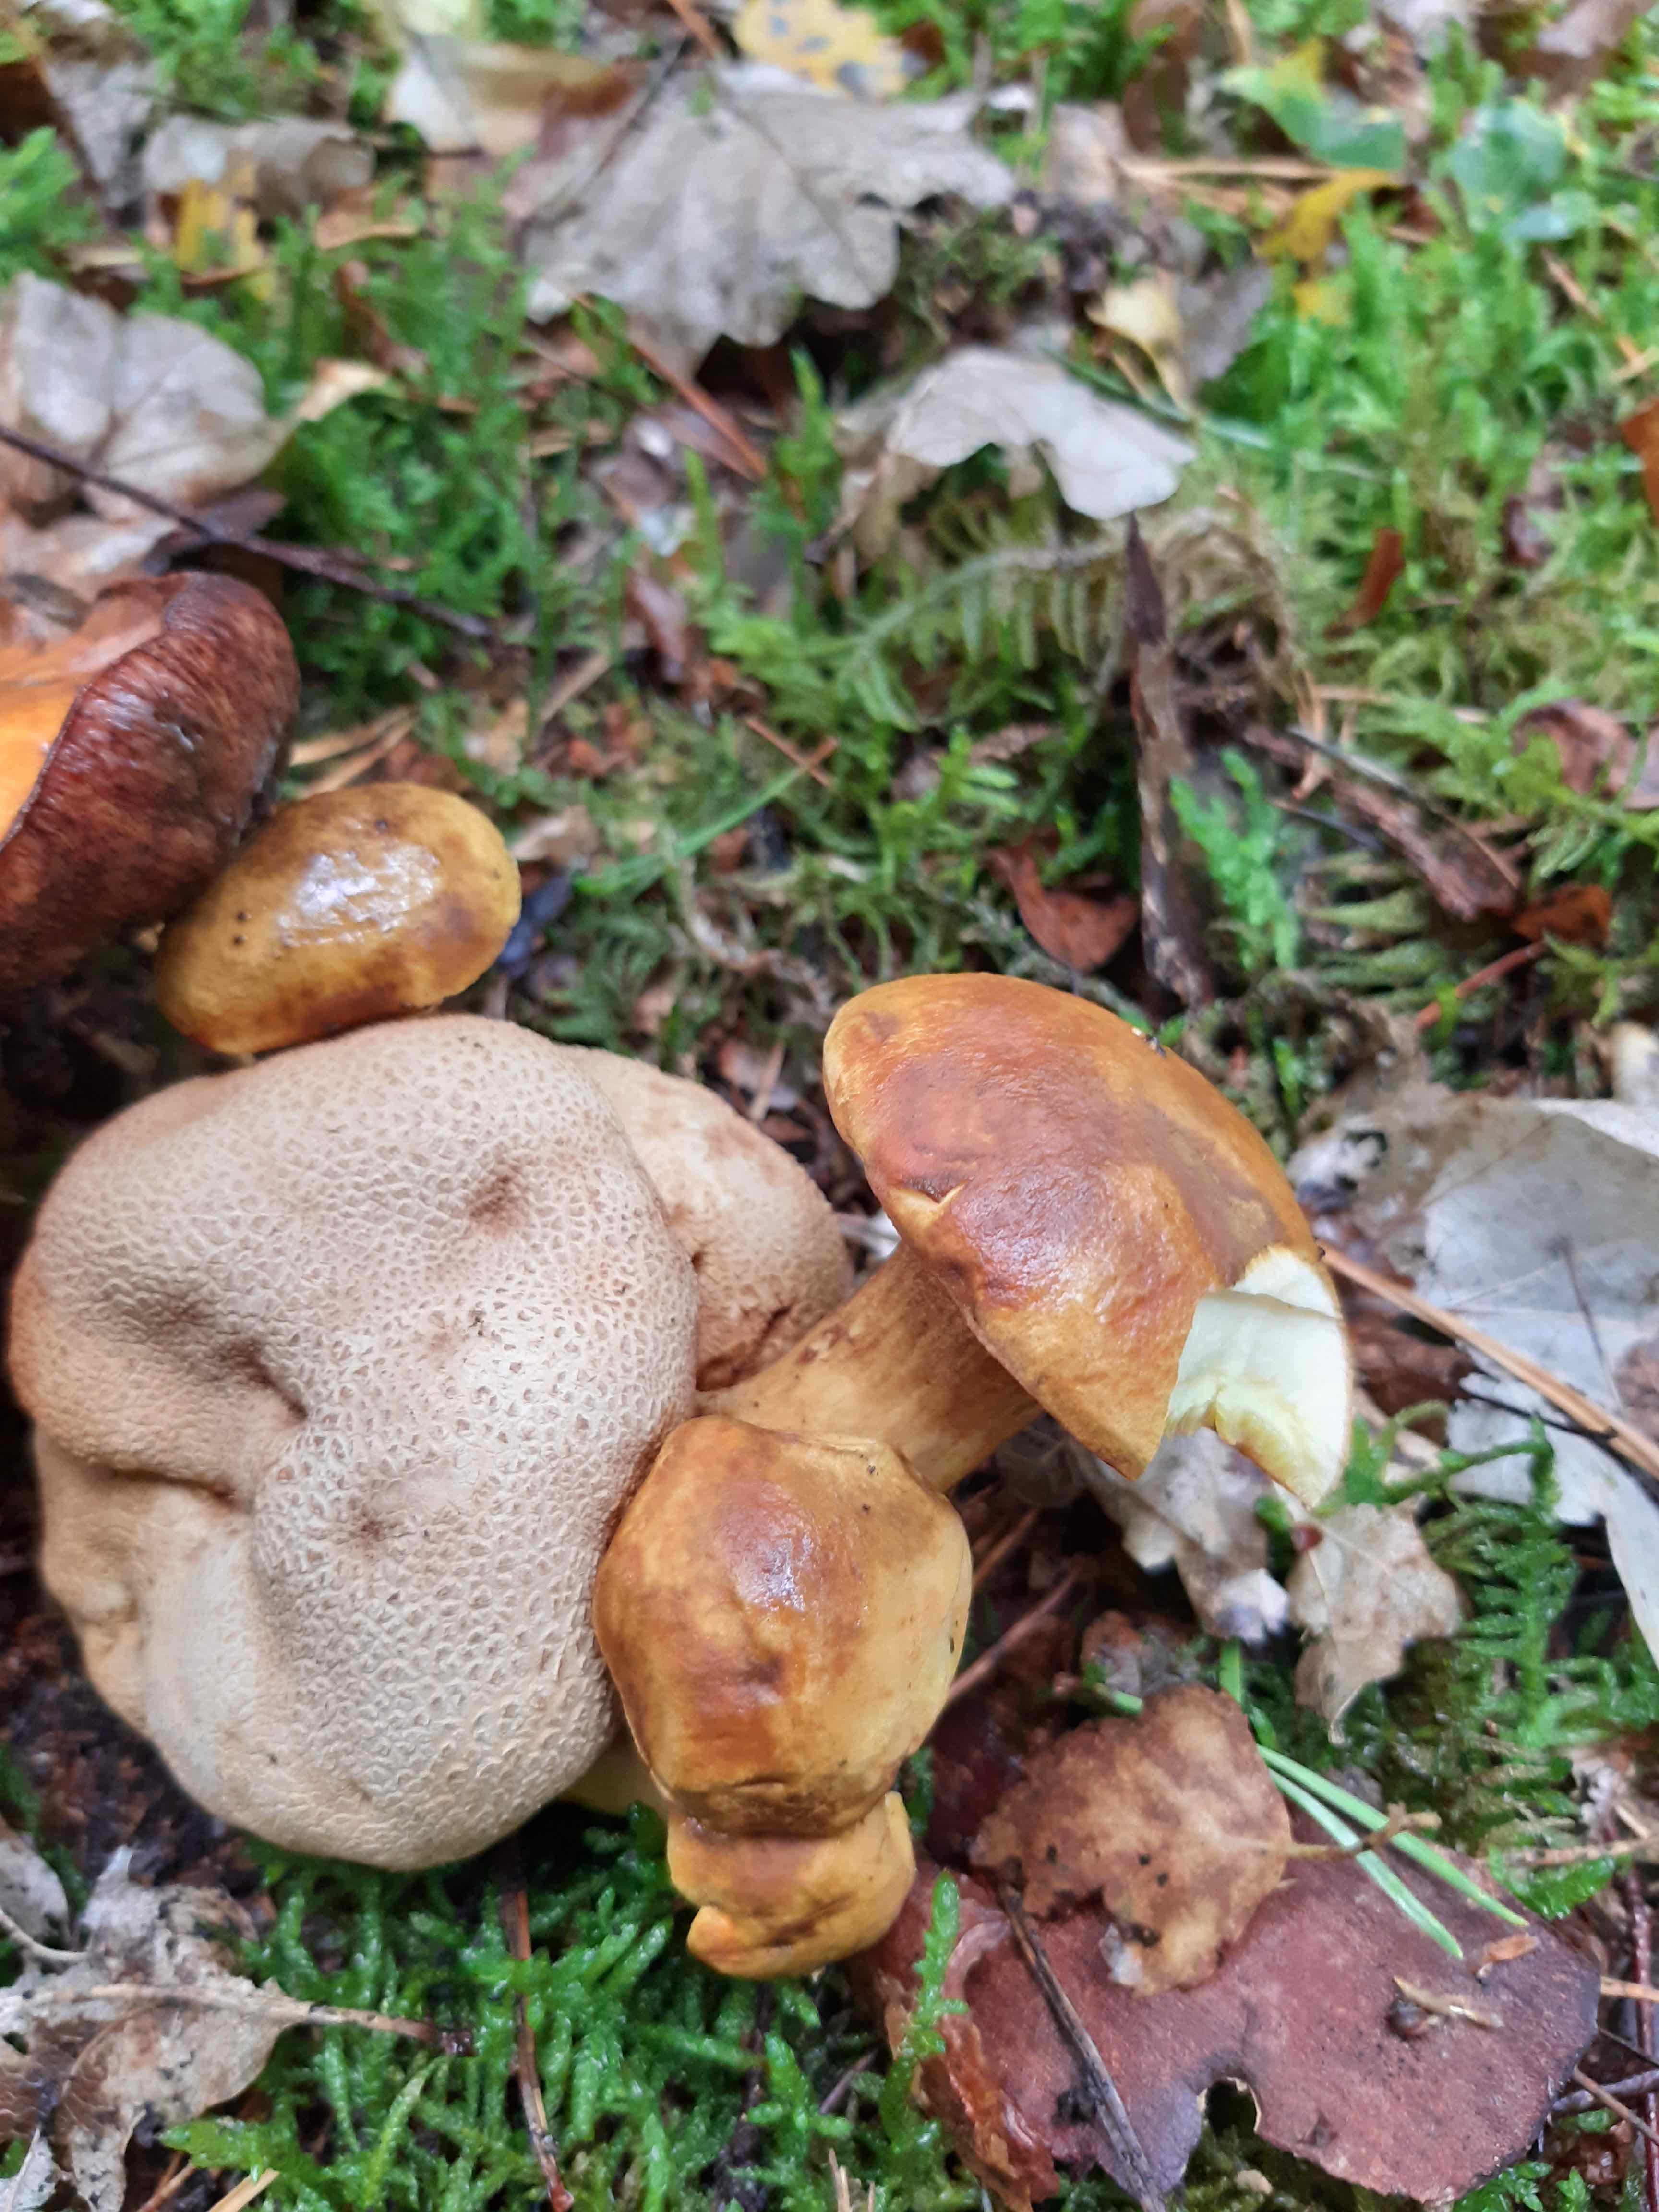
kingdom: Fungi
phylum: Basidiomycota
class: Agaricomycetes
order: Boletales
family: Boletaceae
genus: Pseudoboletus
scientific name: Pseudoboletus parasiticus
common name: snyltende rørhat
